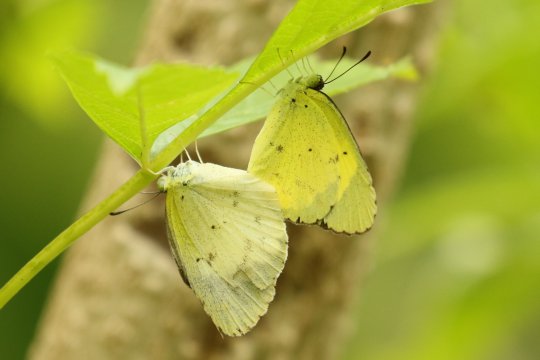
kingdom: Animalia
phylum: Arthropoda
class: Insecta
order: Lepidoptera
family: Pieridae
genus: Pyrisitia
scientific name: Pyrisitia lisa
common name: Little Yellow
